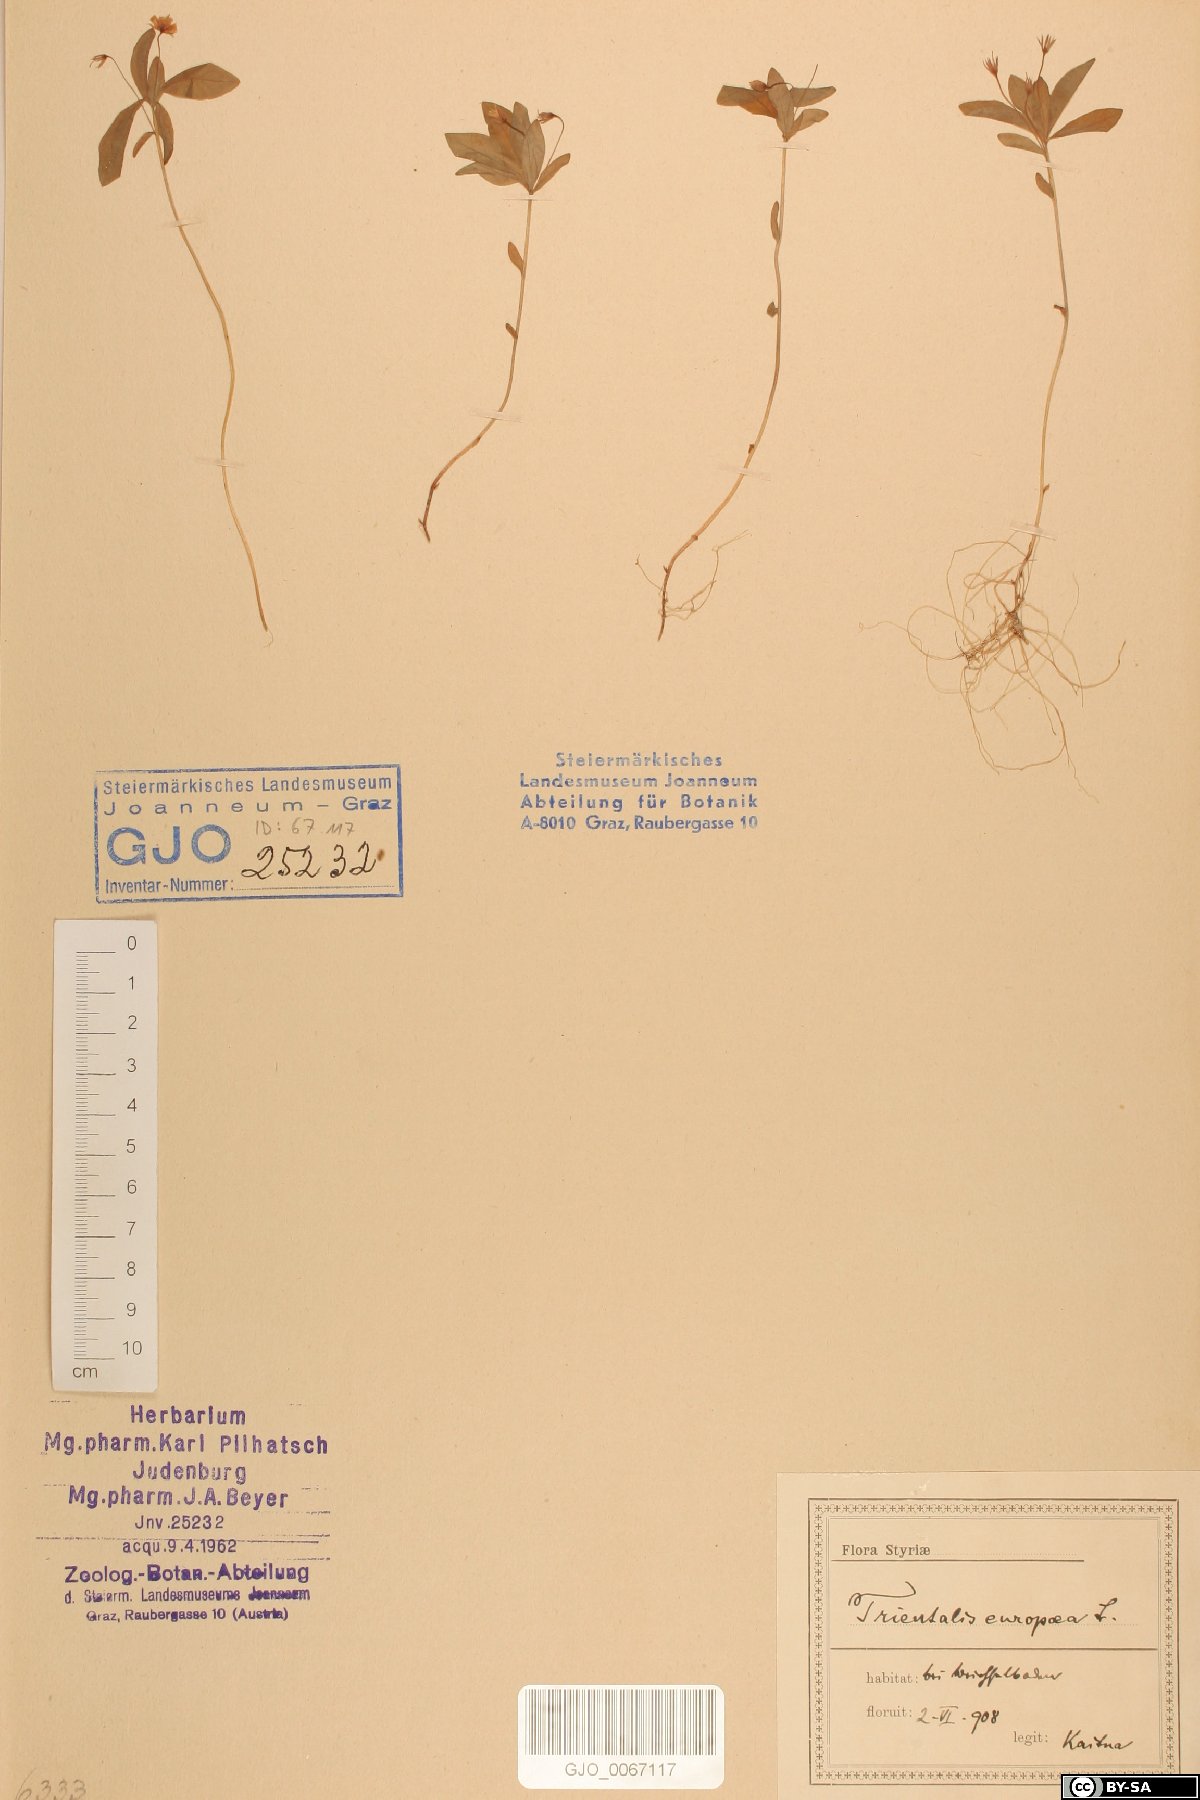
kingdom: Plantae
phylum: Tracheophyta
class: Magnoliopsida
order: Ericales
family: Primulaceae
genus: Lysimachia
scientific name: Lysimachia europaea
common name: Arctic starflower
